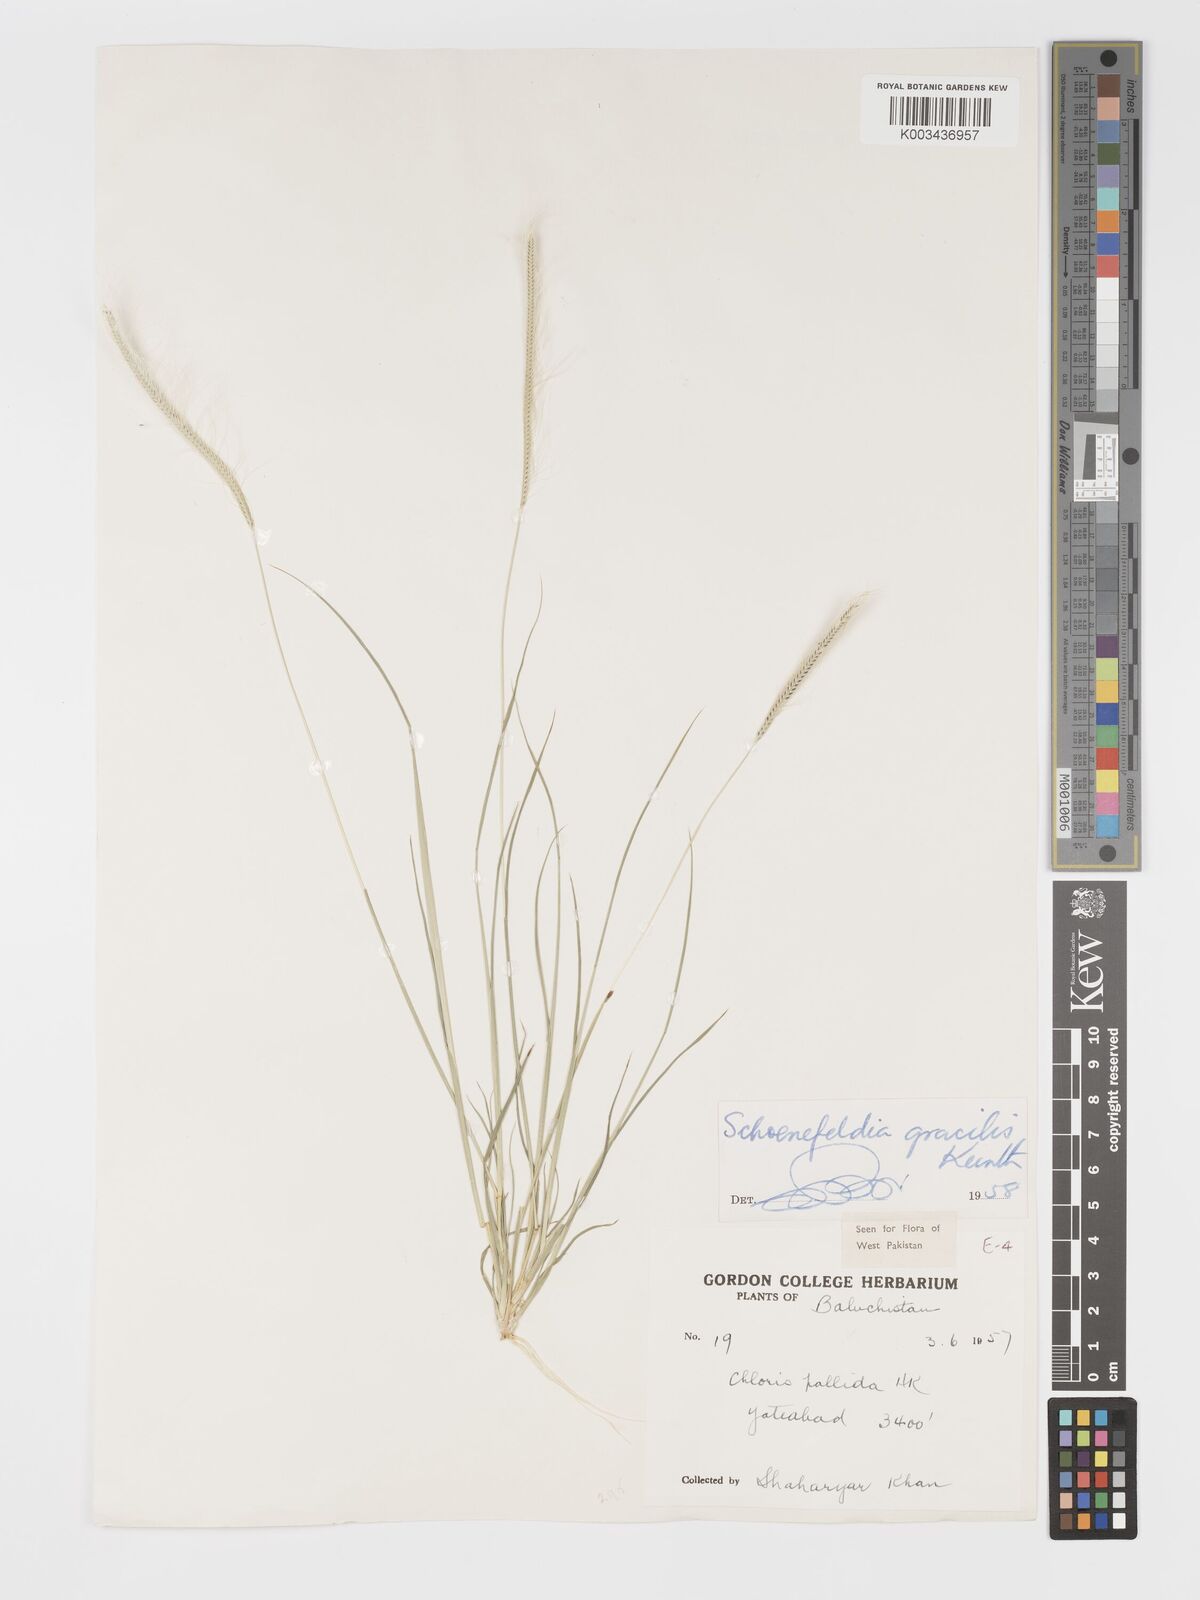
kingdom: Plantae
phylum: Tracheophyta
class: Liliopsida
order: Poales
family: Poaceae
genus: Schoenefeldia
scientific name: Schoenefeldia gracilis
